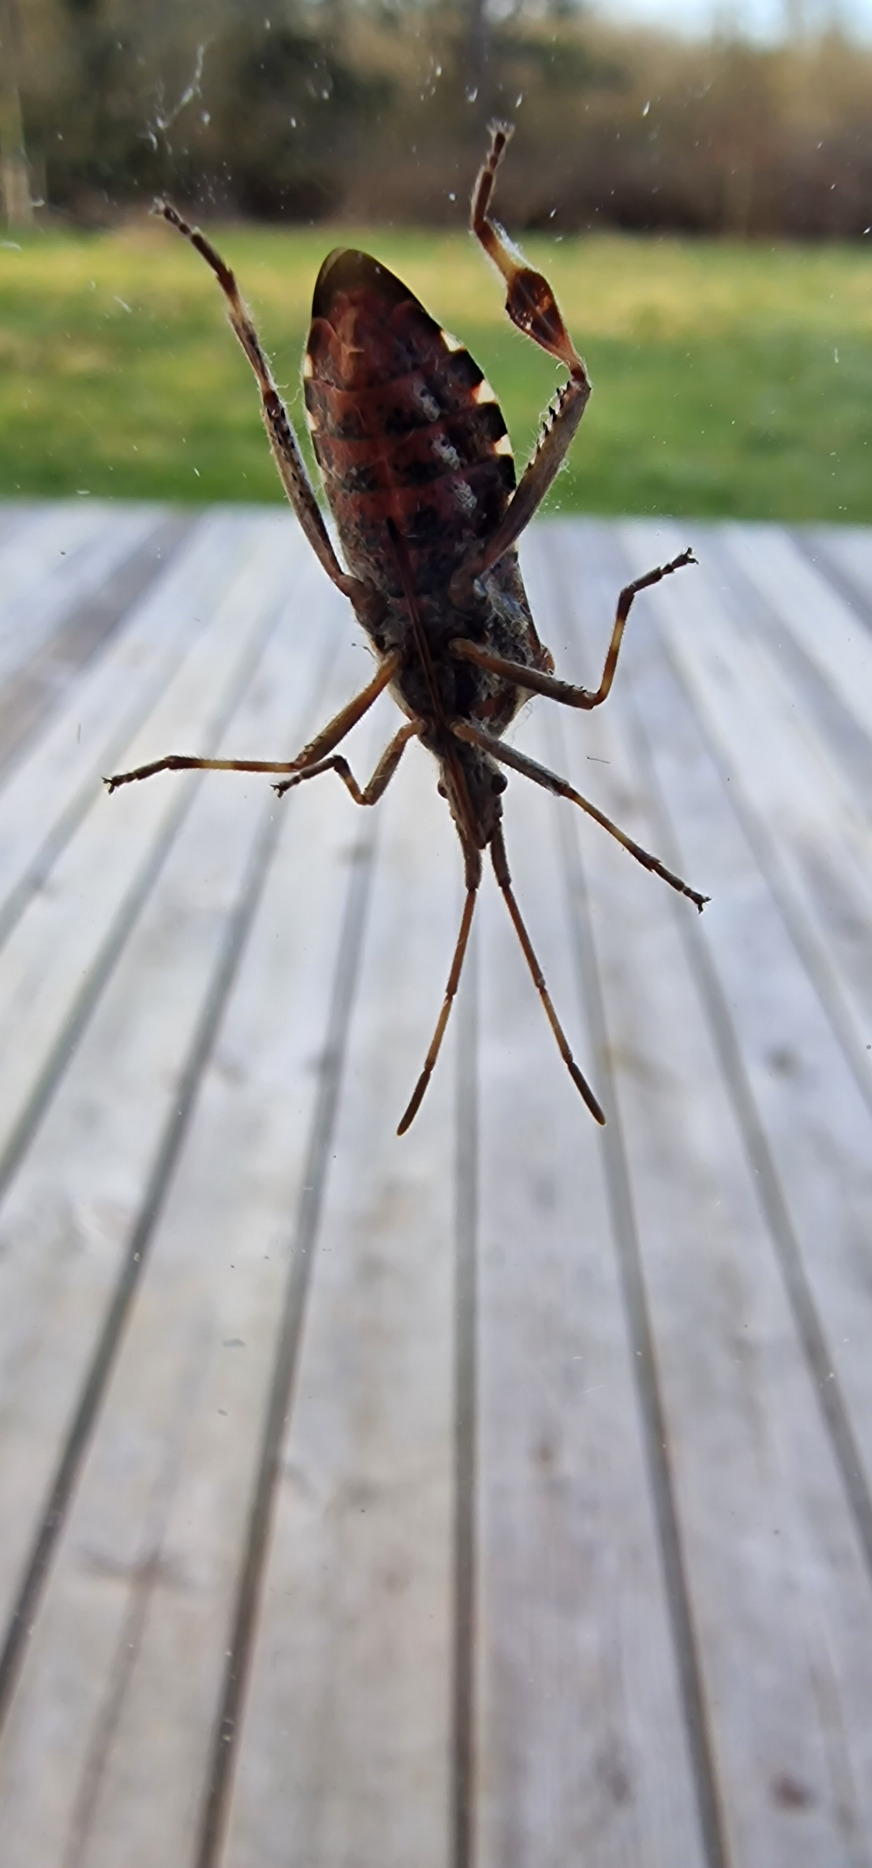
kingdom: Animalia
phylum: Arthropoda
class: Insecta
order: Hemiptera
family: Coreidae
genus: Leptoglossus
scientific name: Leptoglossus occidentalis
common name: Amerikansk fyrretæge
